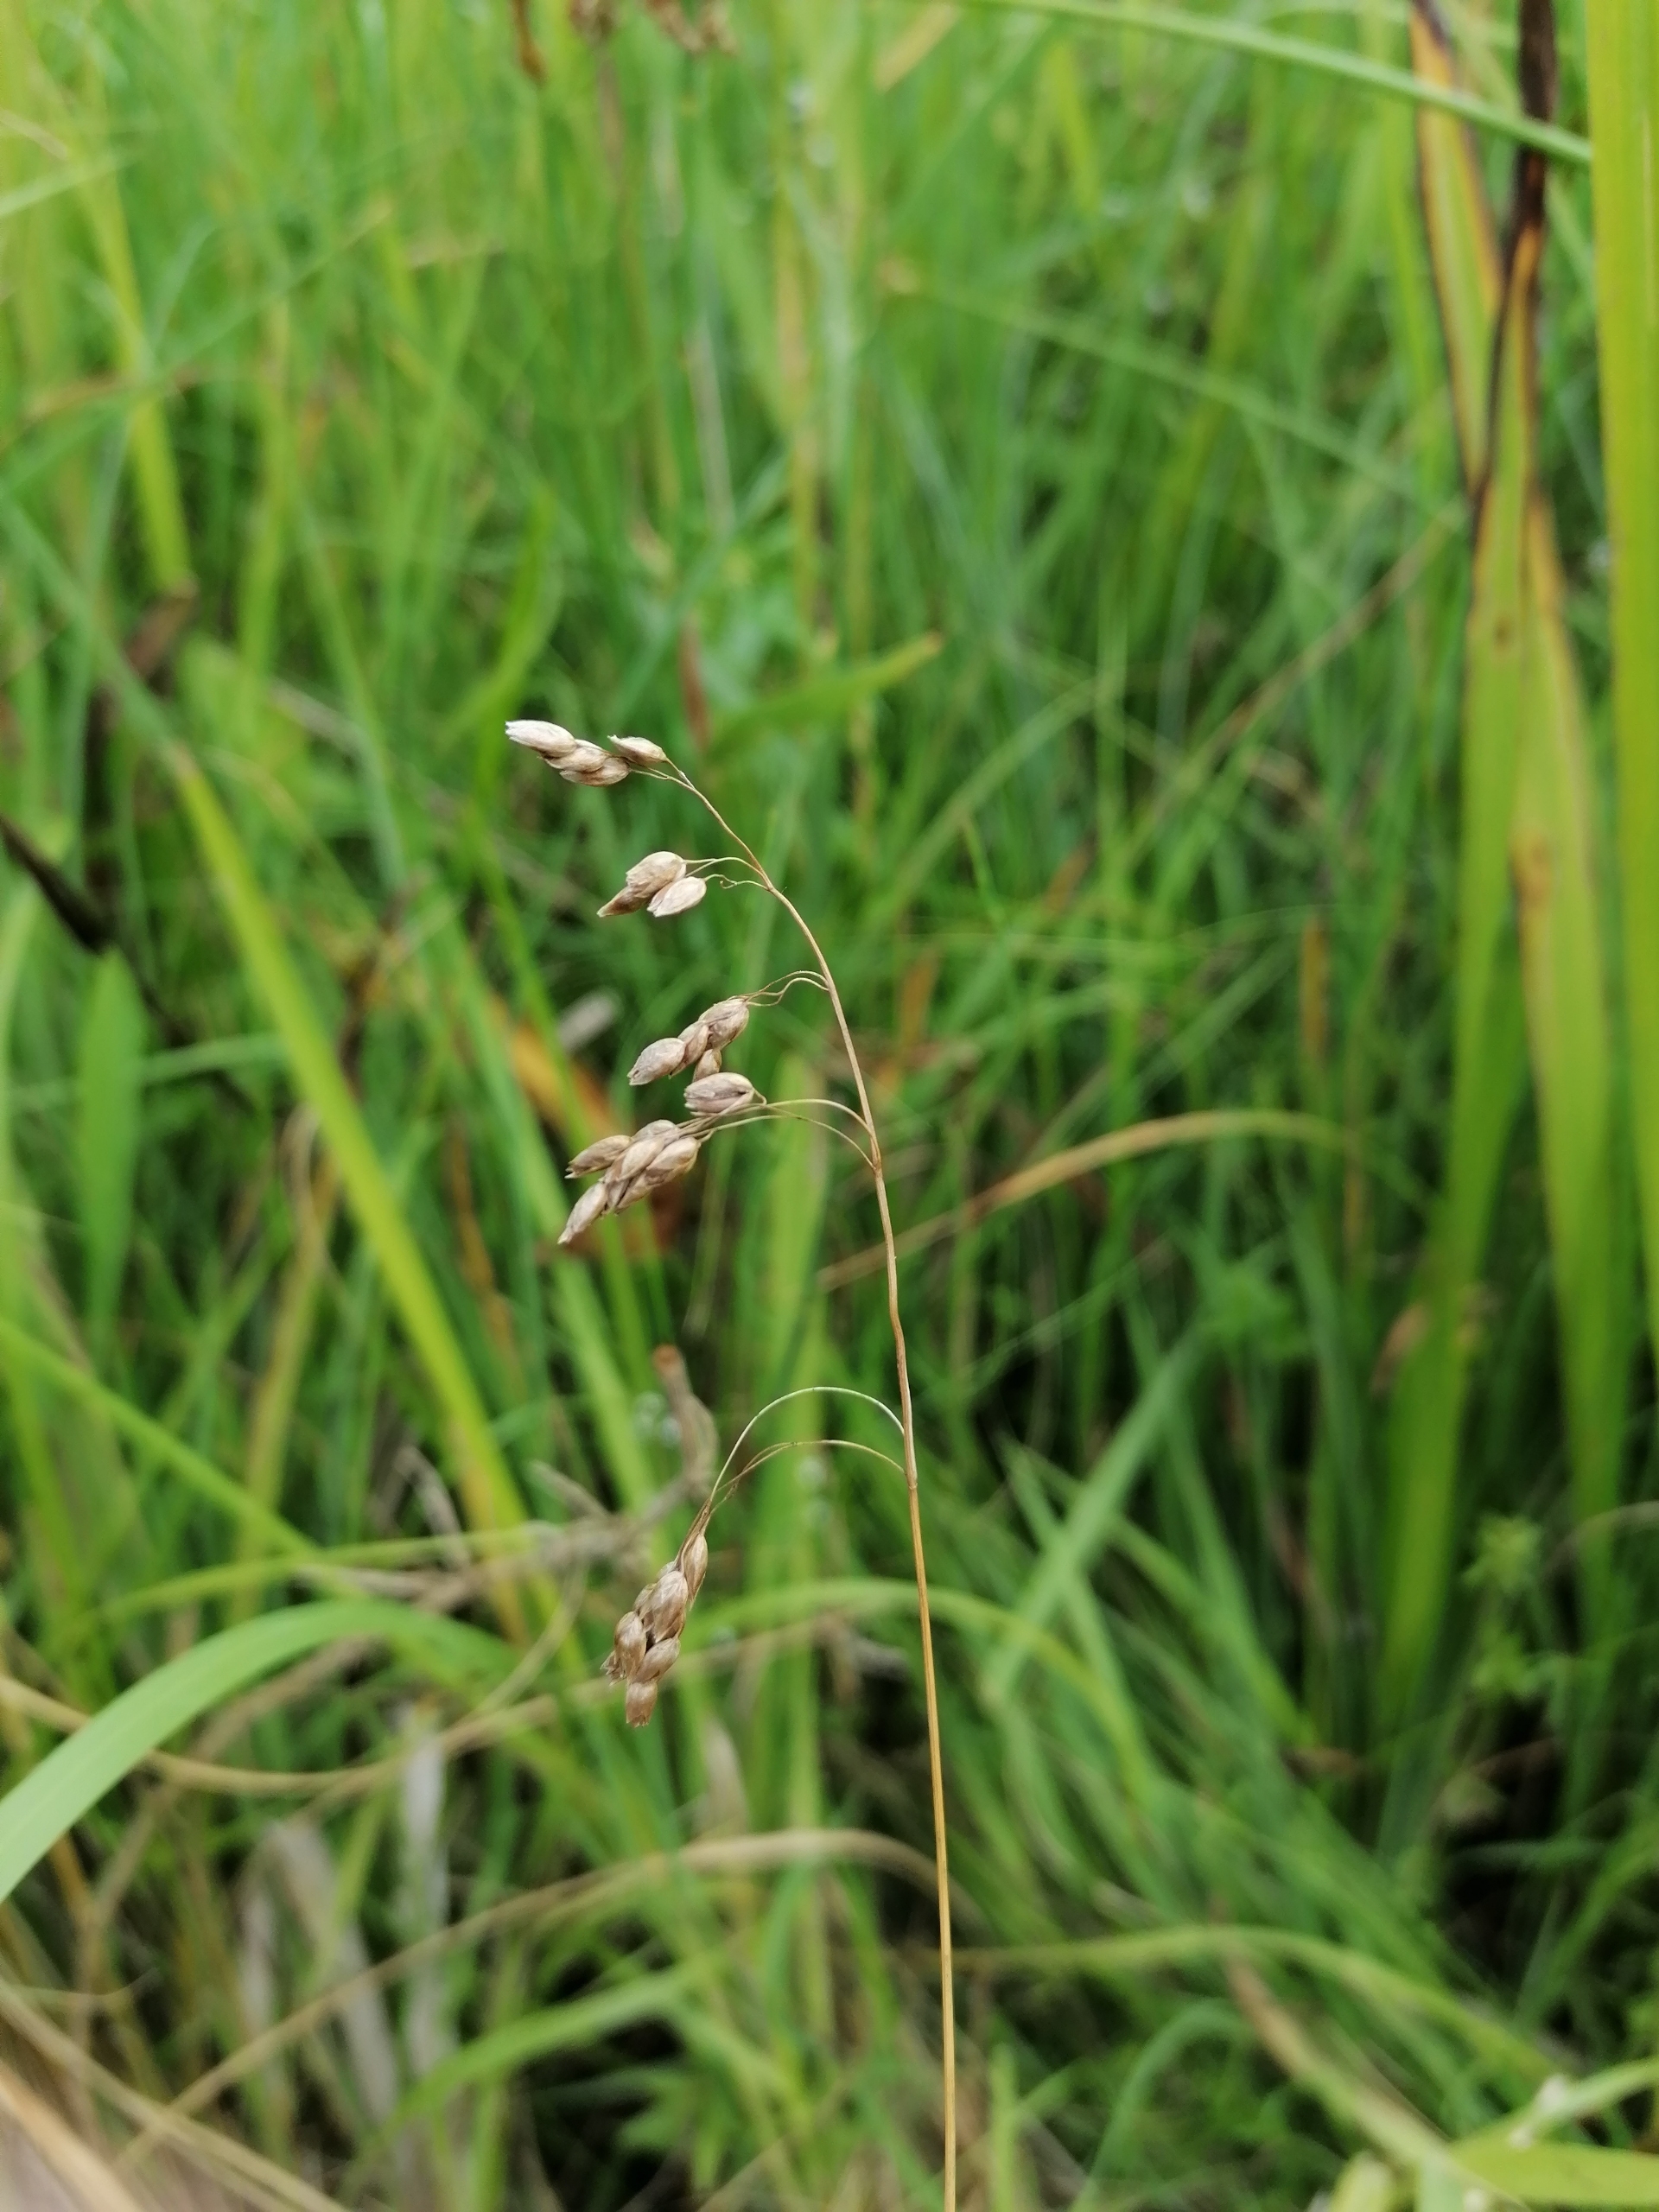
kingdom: Plantae
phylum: Tracheophyta
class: Liliopsida
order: Poales
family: Poaceae
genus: Anthoxanthum
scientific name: Anthoxanthum nitens
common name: Festgræs
